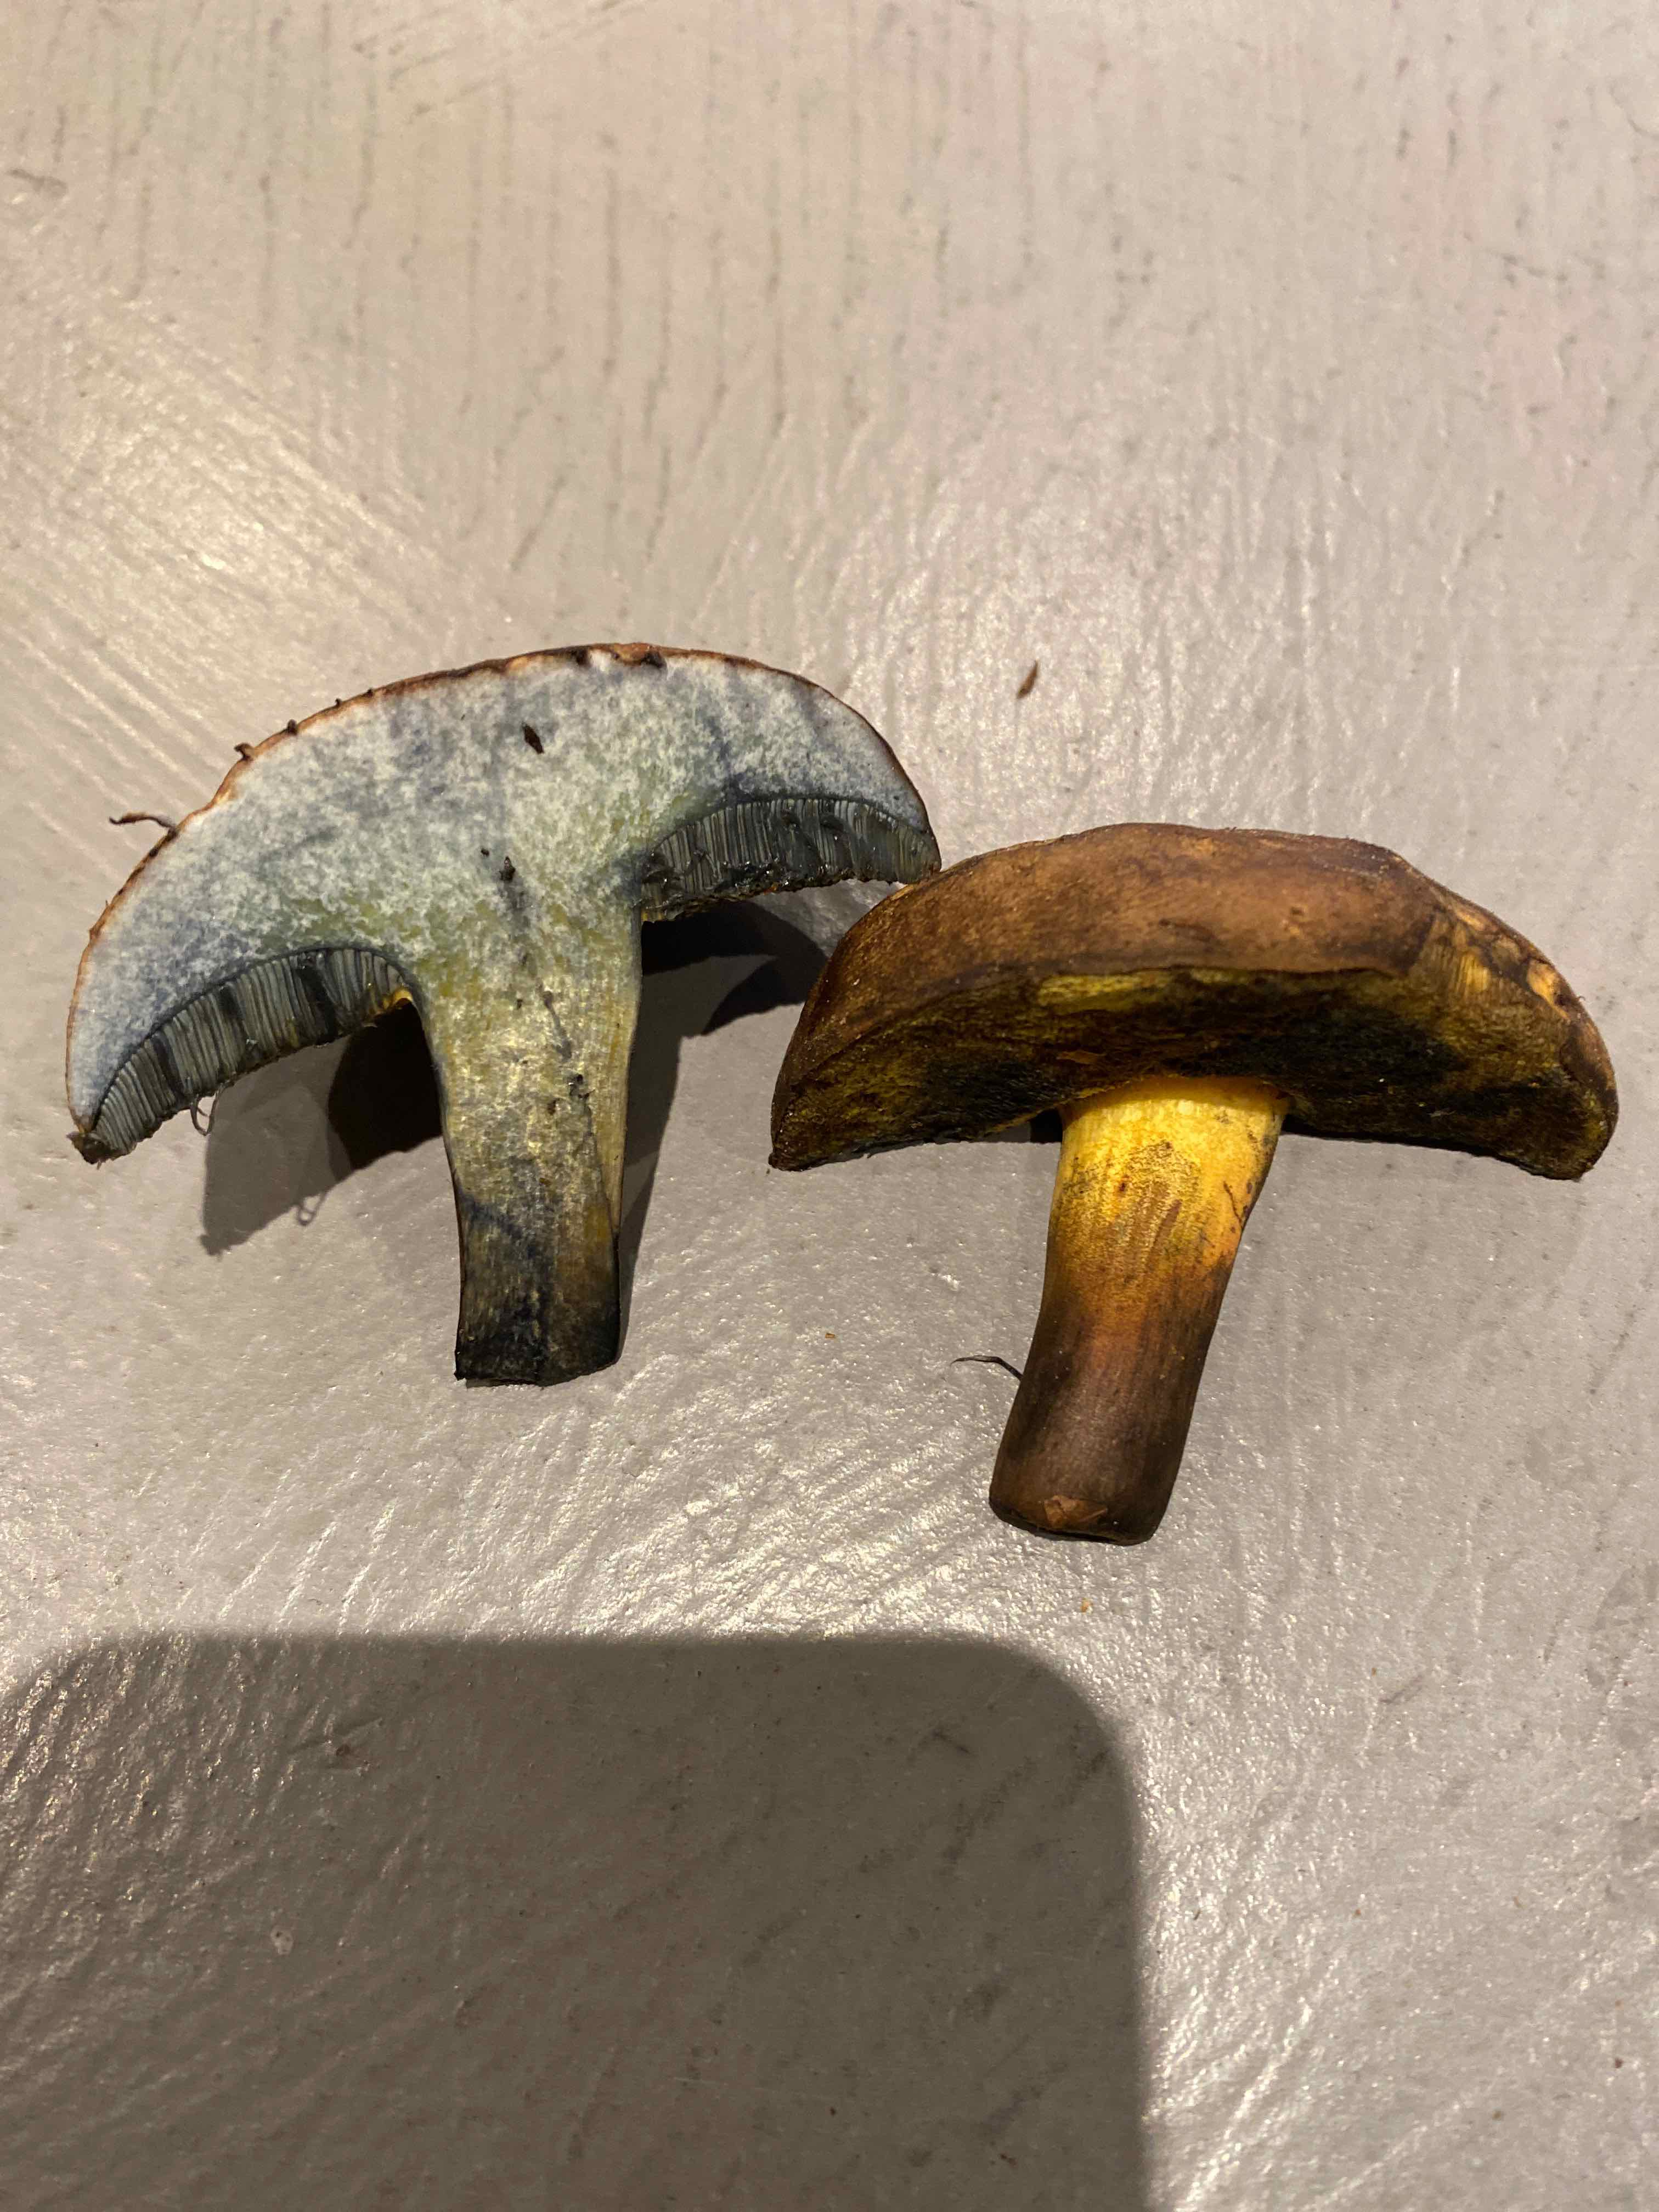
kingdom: Fungi
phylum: Basidiomycota
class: Agaricomycetes
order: Boletales
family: Boletaceae
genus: Cyanoboletus
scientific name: Cyanoboletus pulverulentus
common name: sortblånende rørhat
